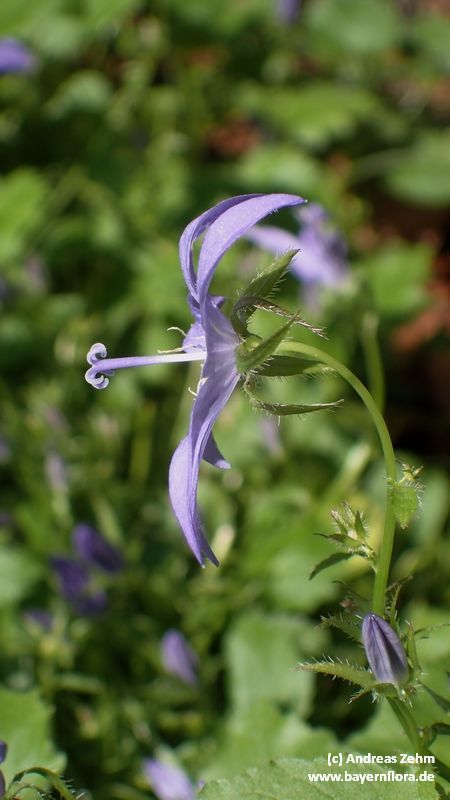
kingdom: Plantae
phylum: Tracheophyta
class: Magnoliopsida
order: Asterales
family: Campanulaceae
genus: Campanula
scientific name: Campanula poscharskyana
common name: Trailing bellflower
